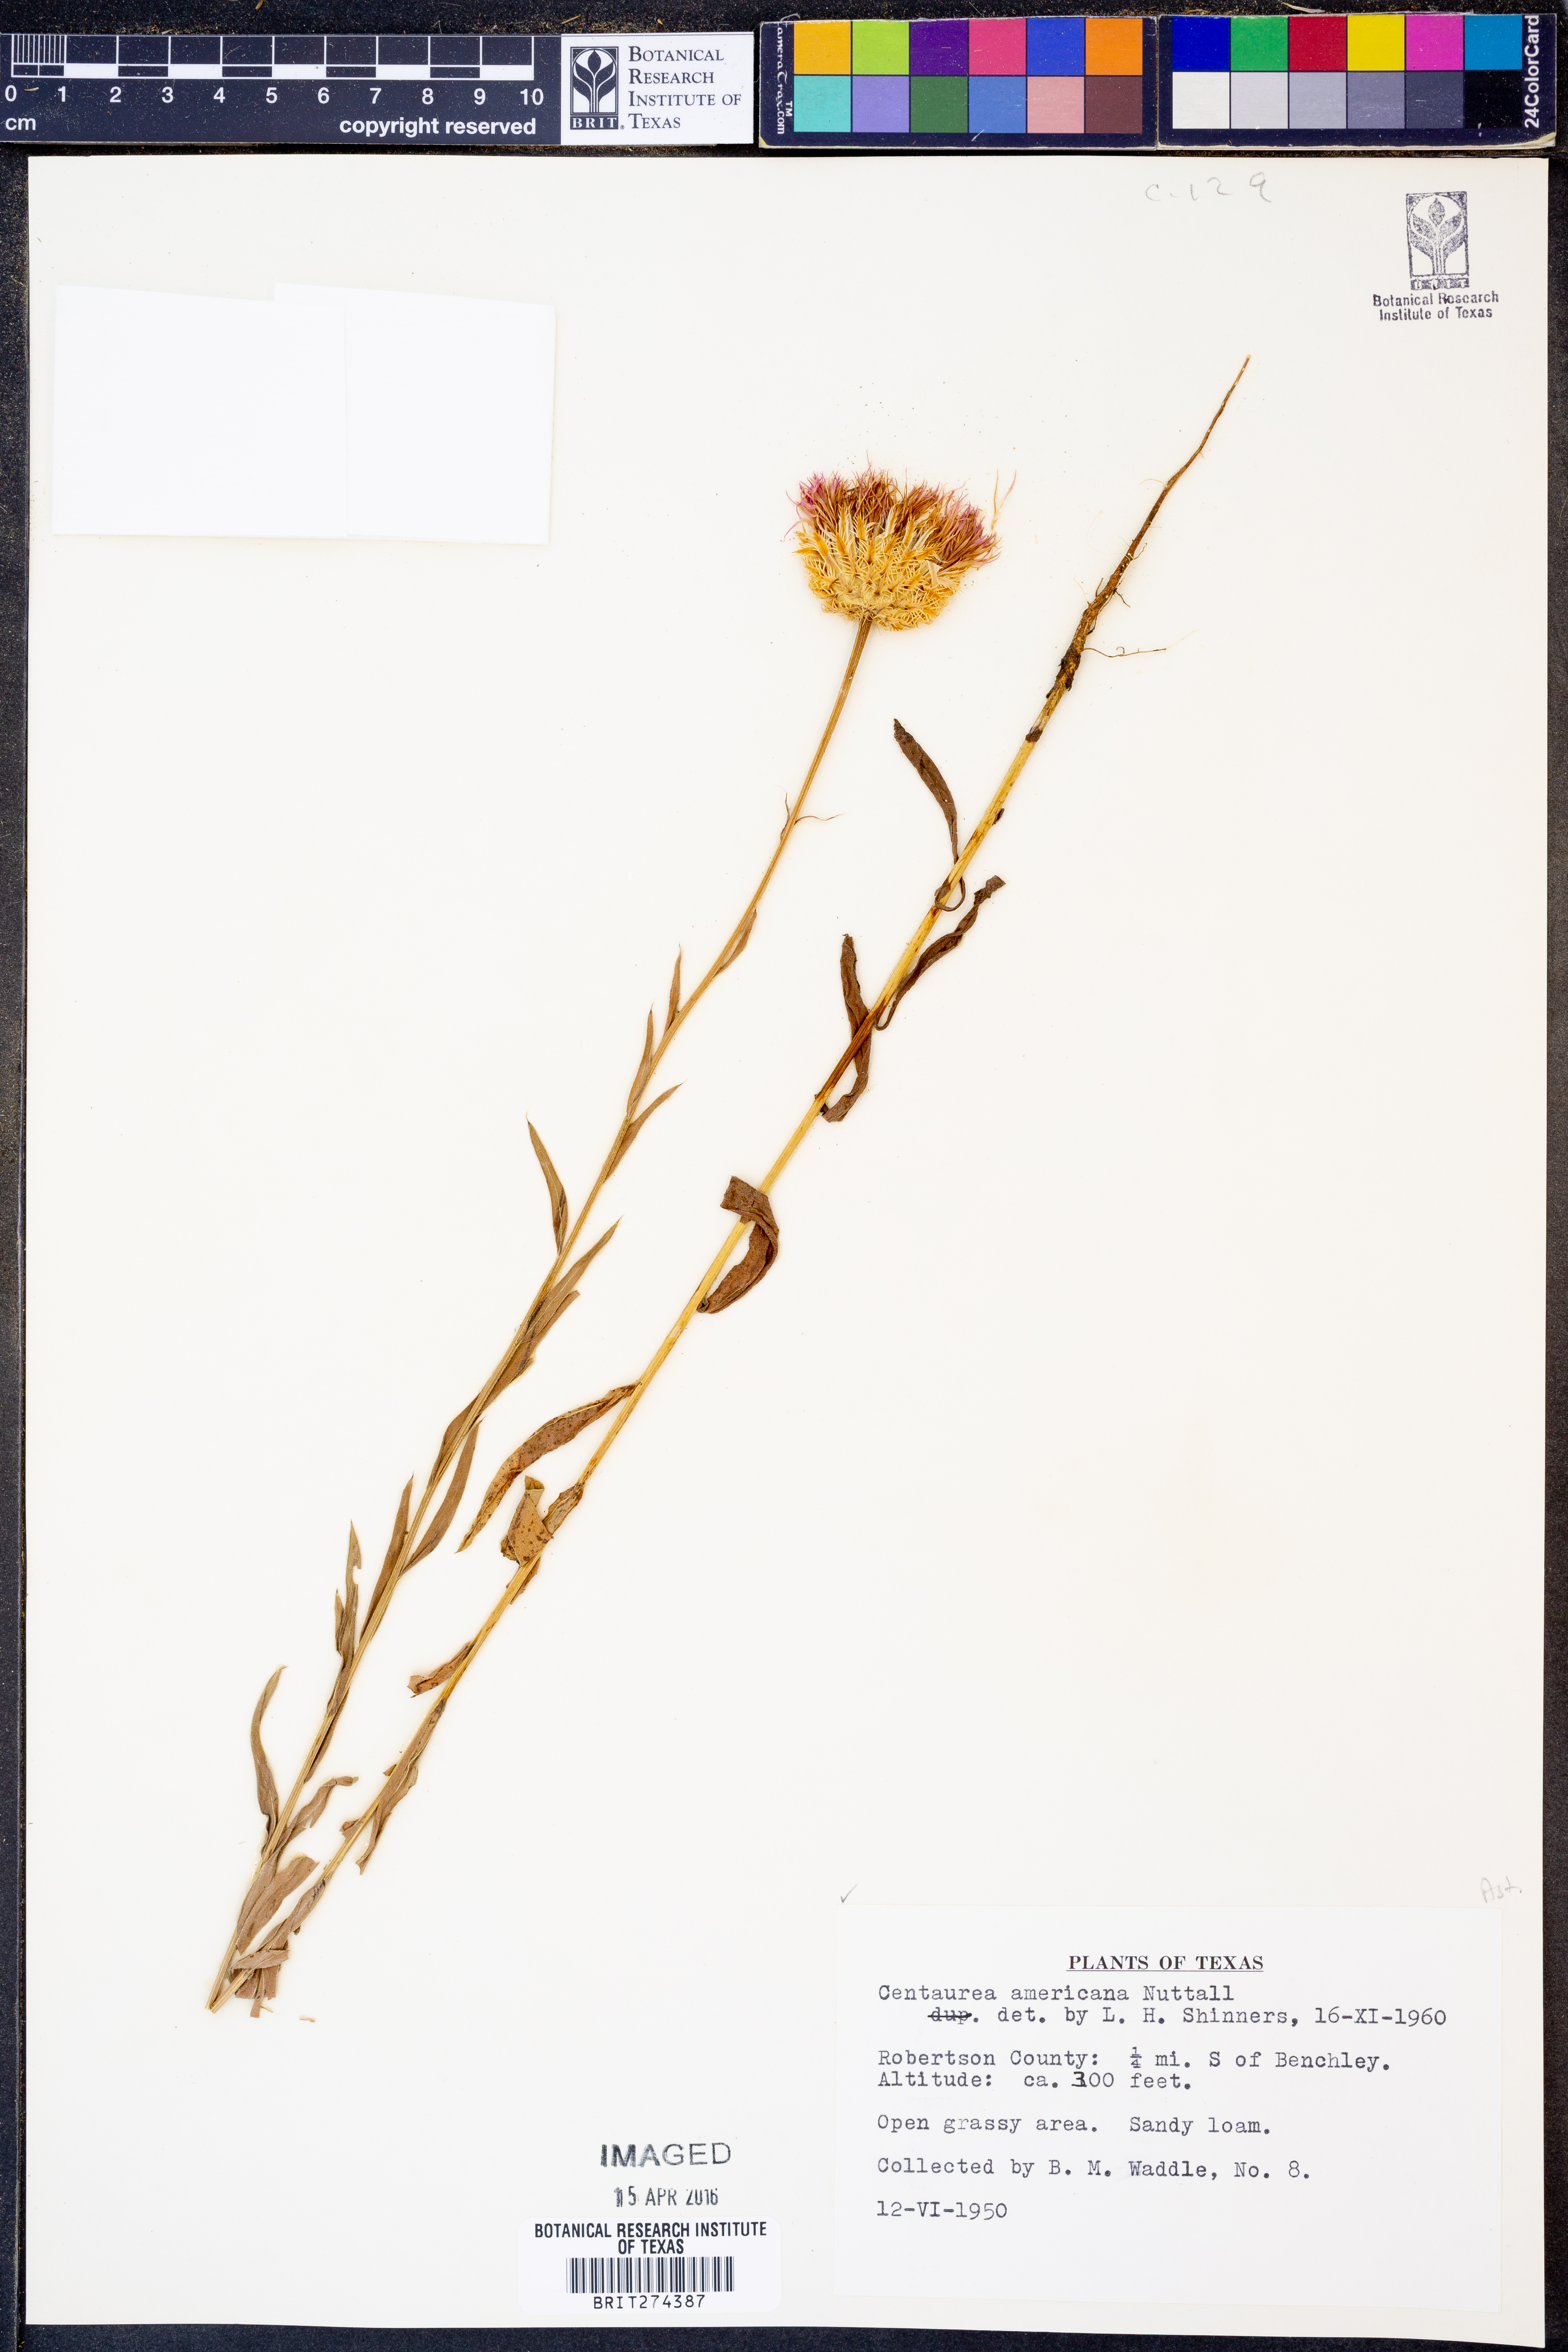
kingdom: Plantae
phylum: Tracheophyta
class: Magnoliopsida
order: Asterales
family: Asteraceae
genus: Plectocephalus
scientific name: Plectocephalus americanus
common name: American basket-flower
